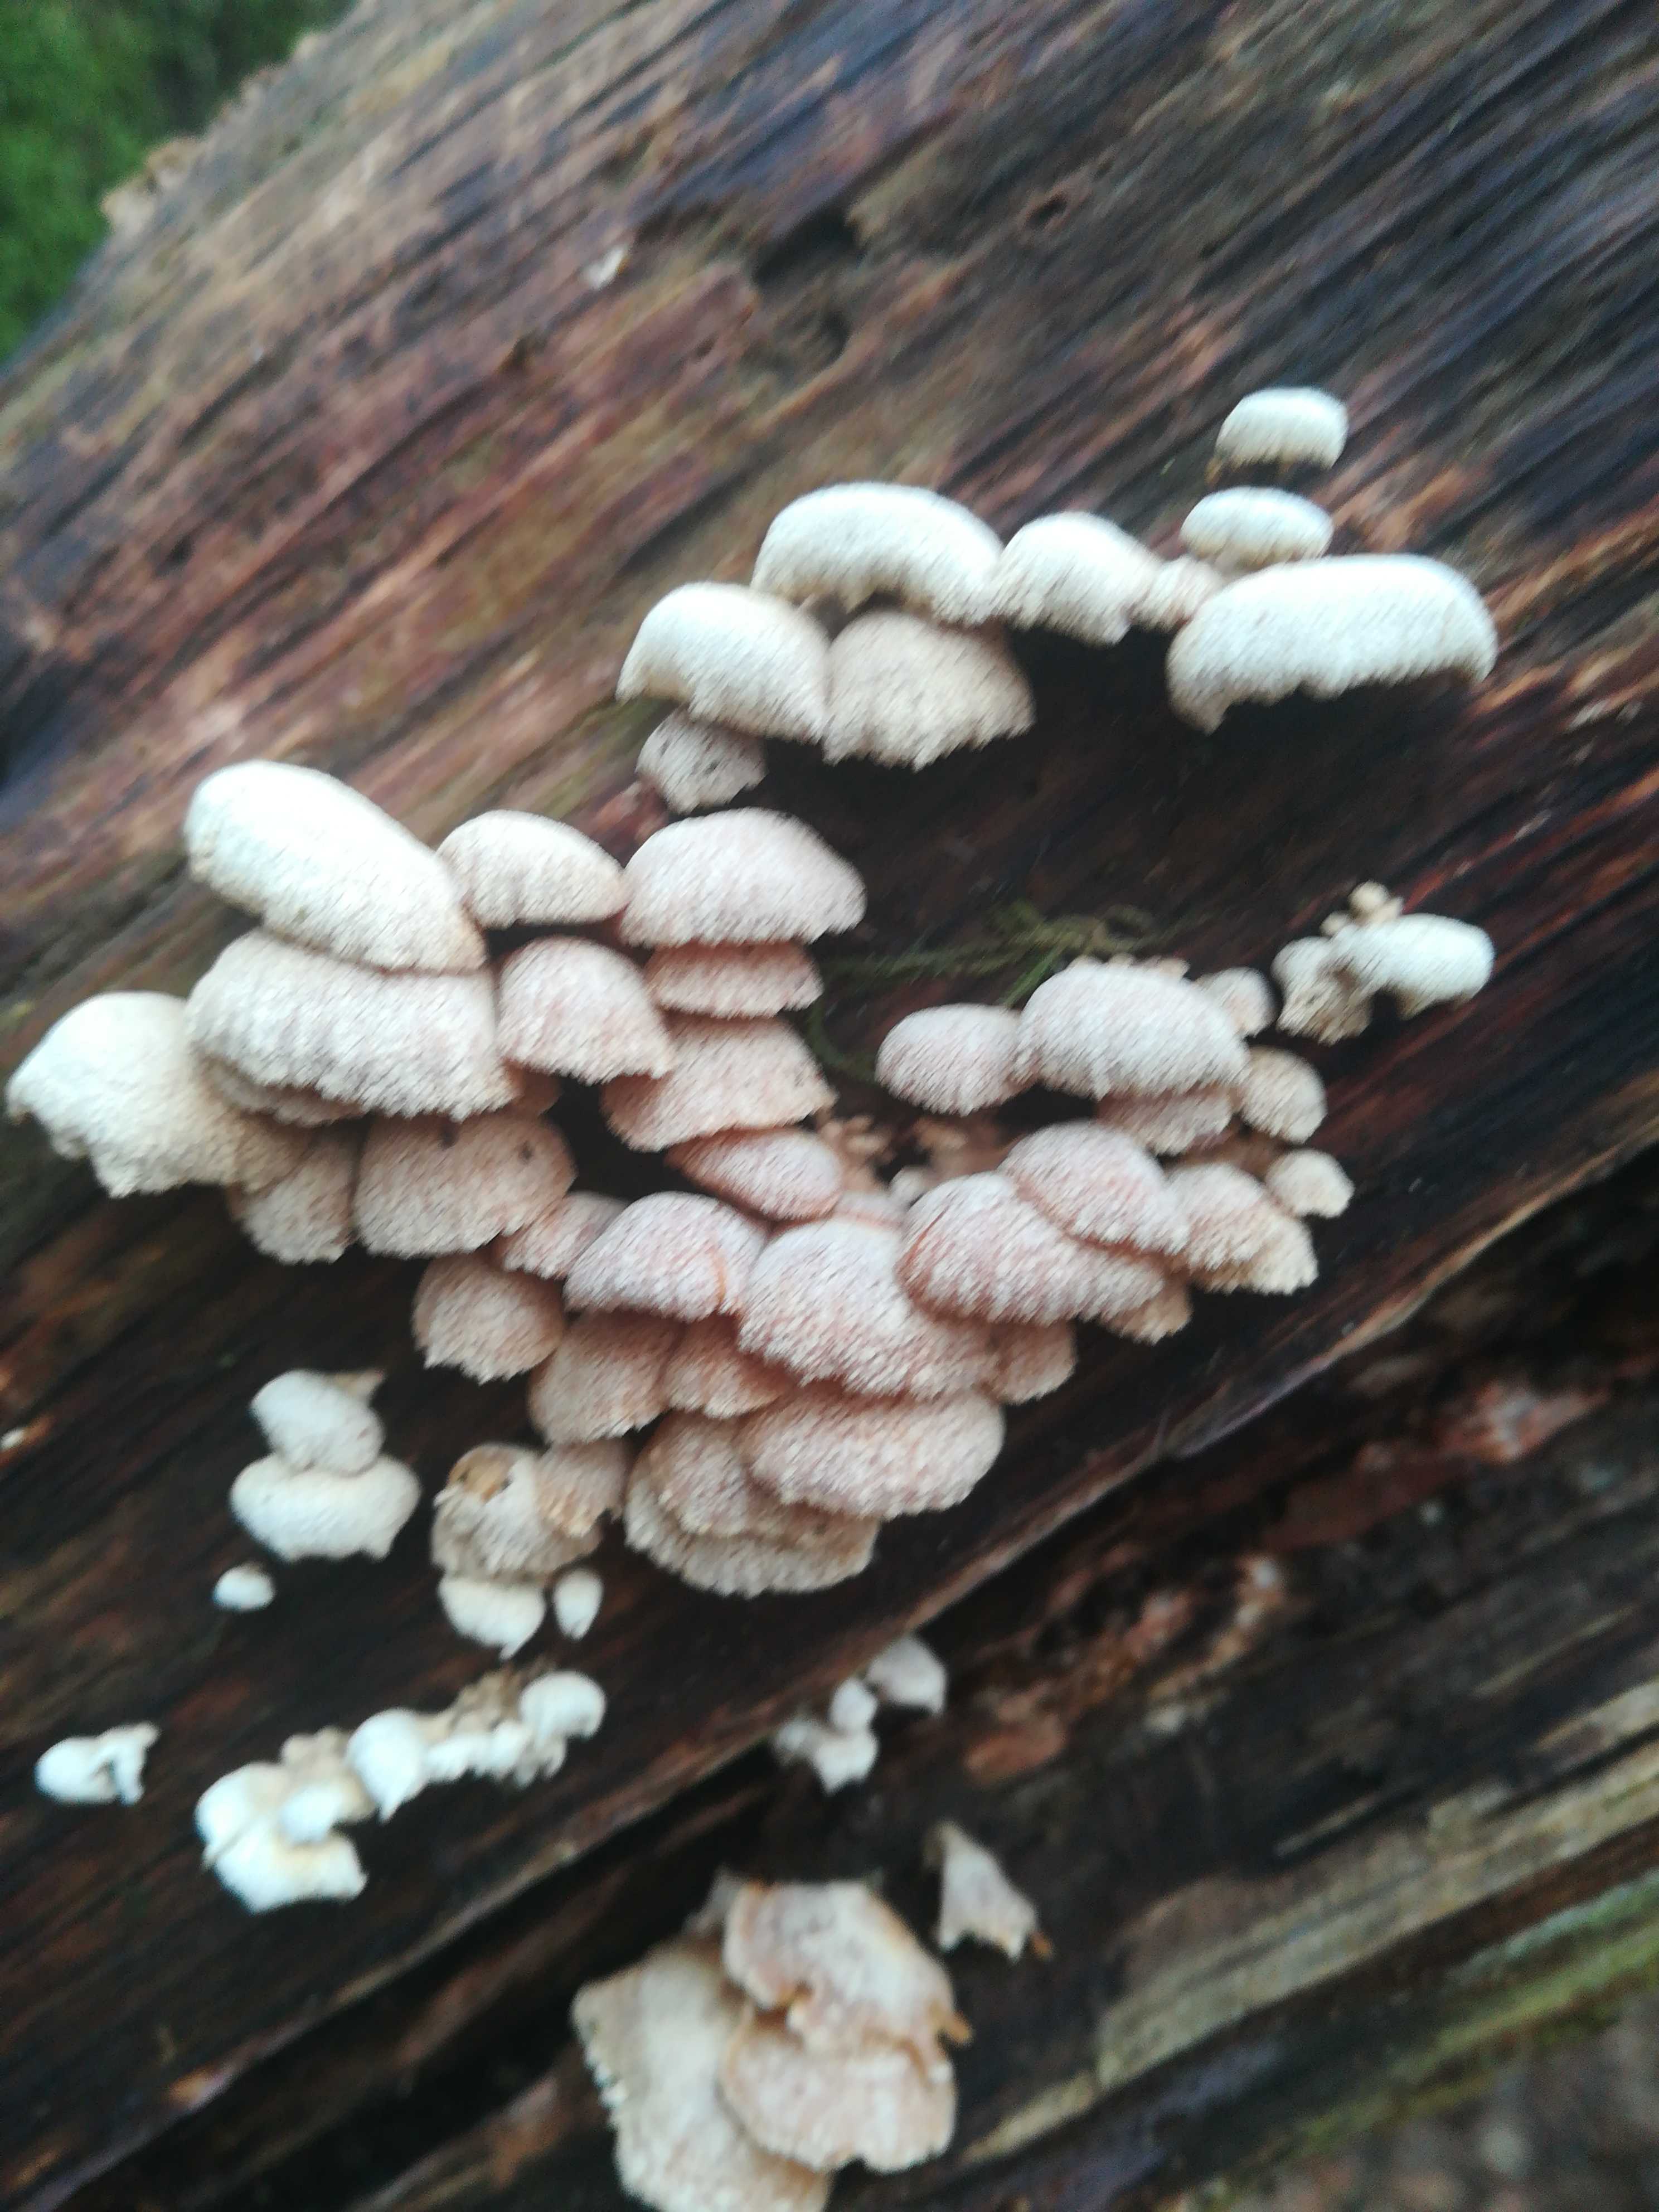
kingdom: Fungi
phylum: Basidiomycota
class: Agaricomycetes
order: Agaricales
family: Mycenaceae
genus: Panellus
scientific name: Panellus stipticus
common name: kliddet epaulethat
